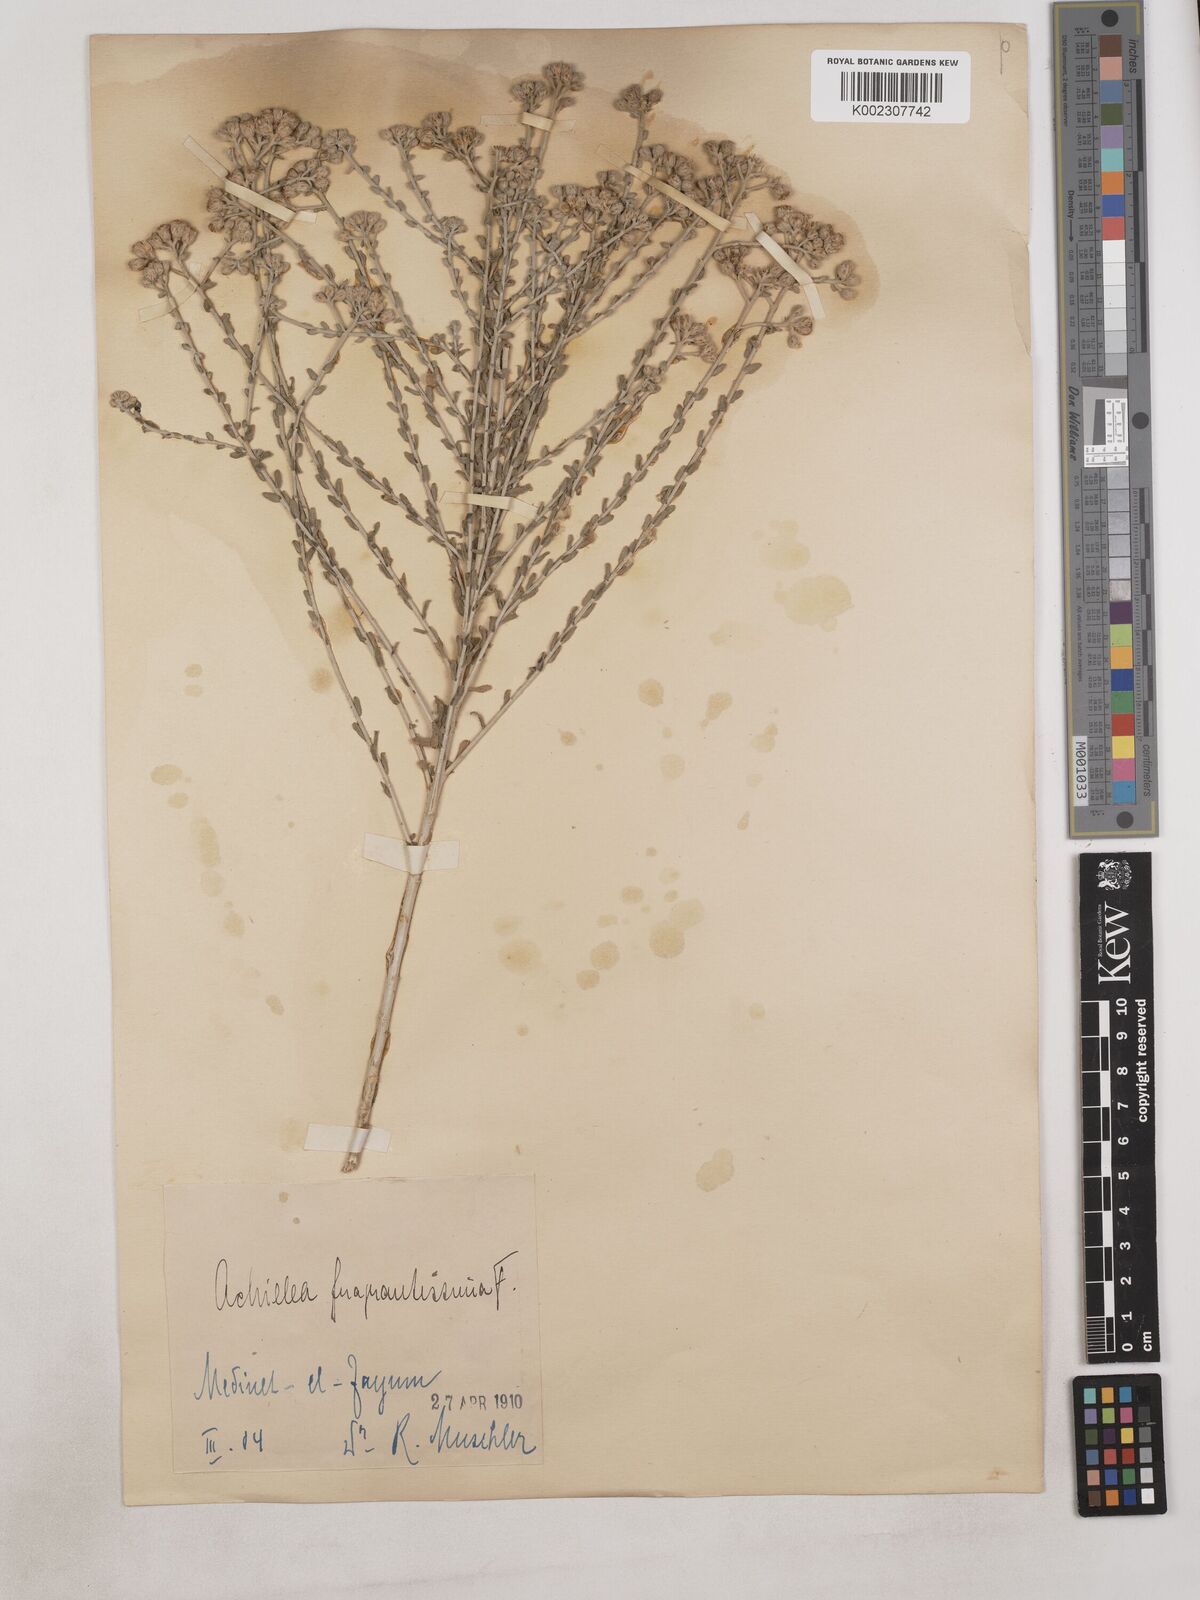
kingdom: Plantae
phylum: Tracheophyta
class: Magnoliopsida
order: Asterales
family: Asteraceae
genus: Achillea
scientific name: Achillea fragrantissima
